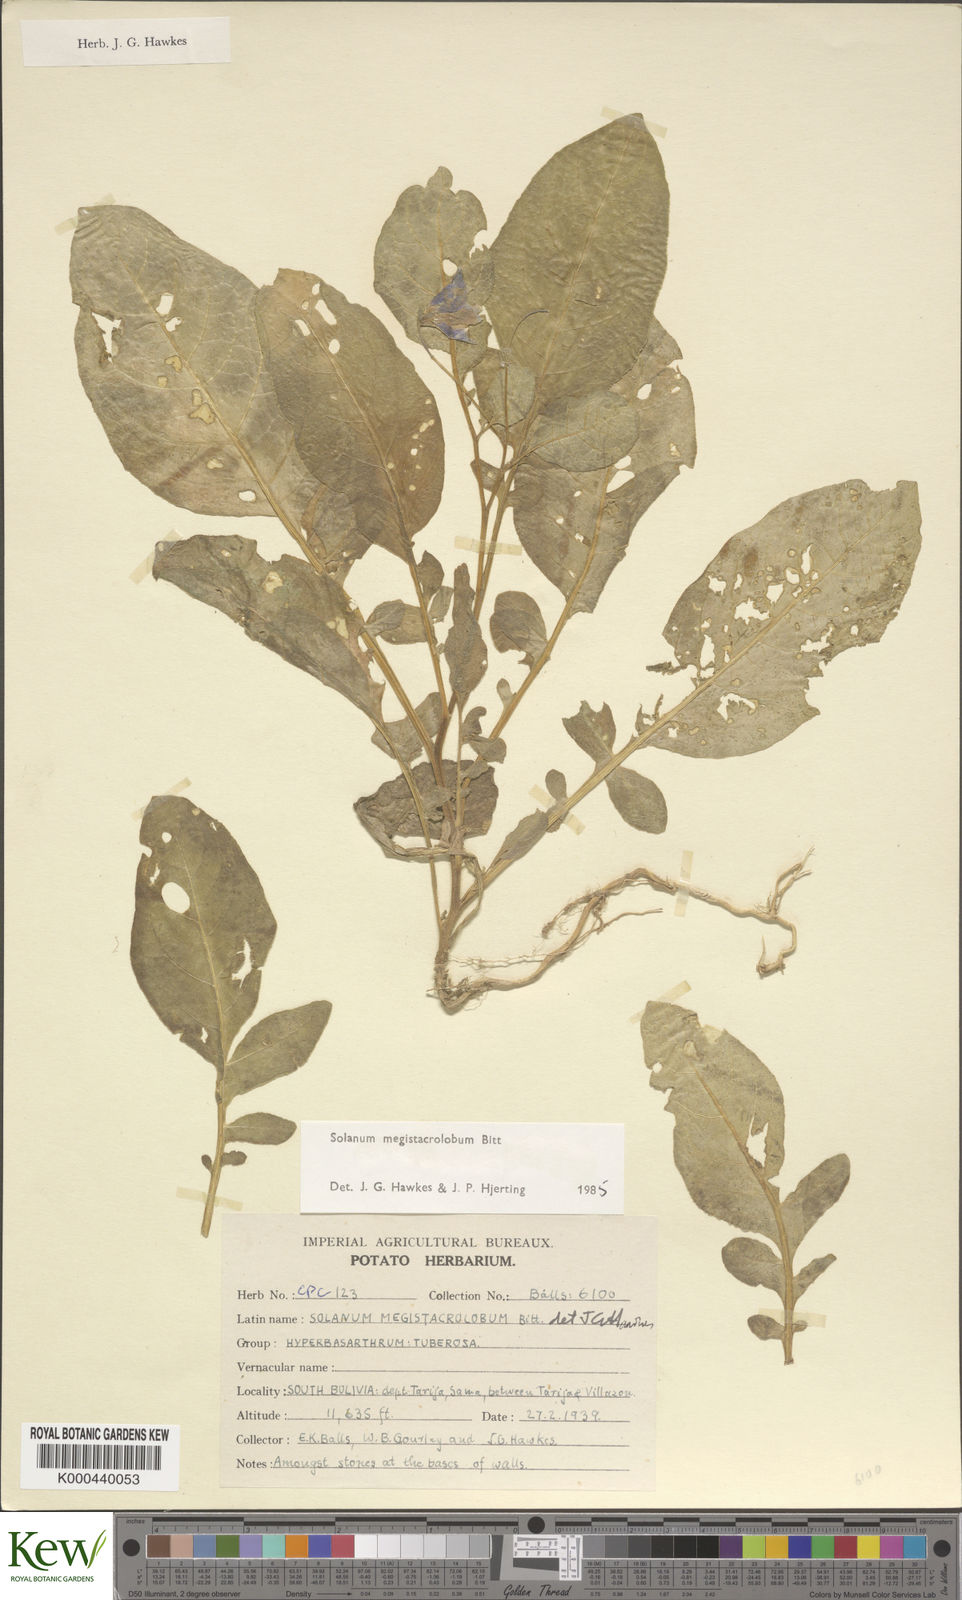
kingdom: Plantae
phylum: Tracheophyta
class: Magnoliopsida
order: Solanales
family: Solanaceae
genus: Solanum
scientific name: Solanum boliviense
